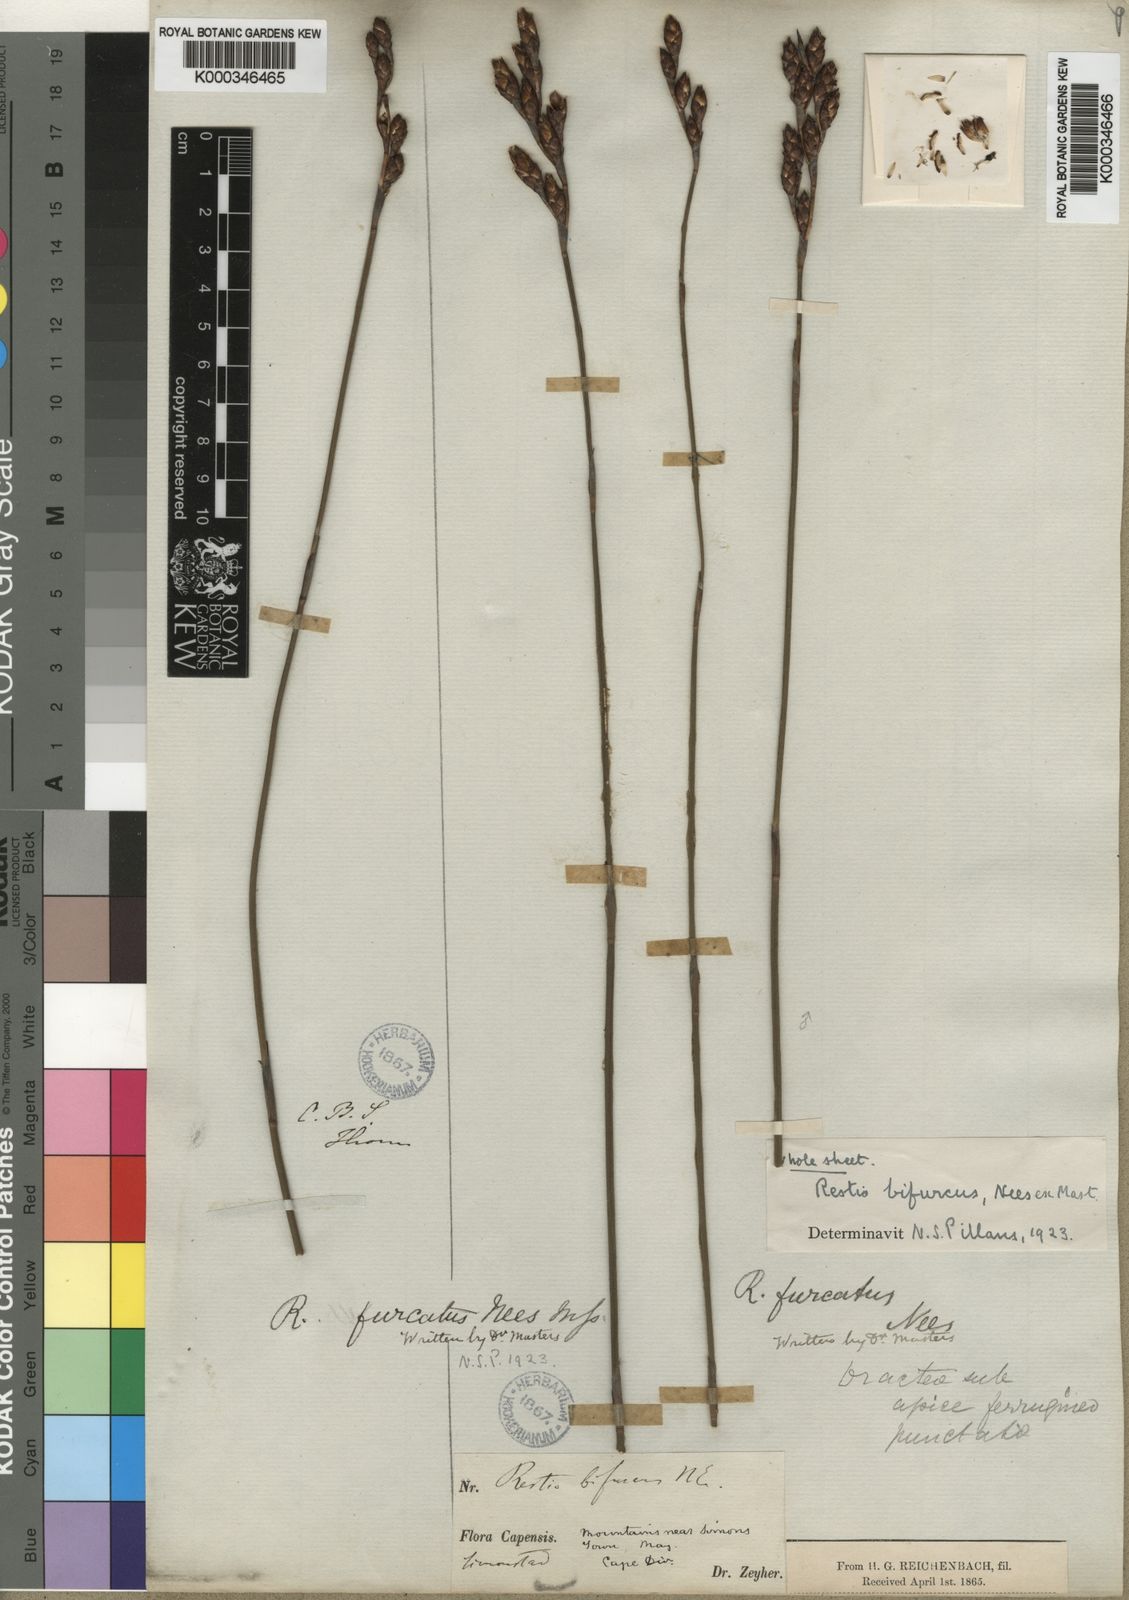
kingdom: Plantae
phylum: Tracheophyta
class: Liliopsida
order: Poales
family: Restionaceae
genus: Restio
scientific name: Restio bifurcus
